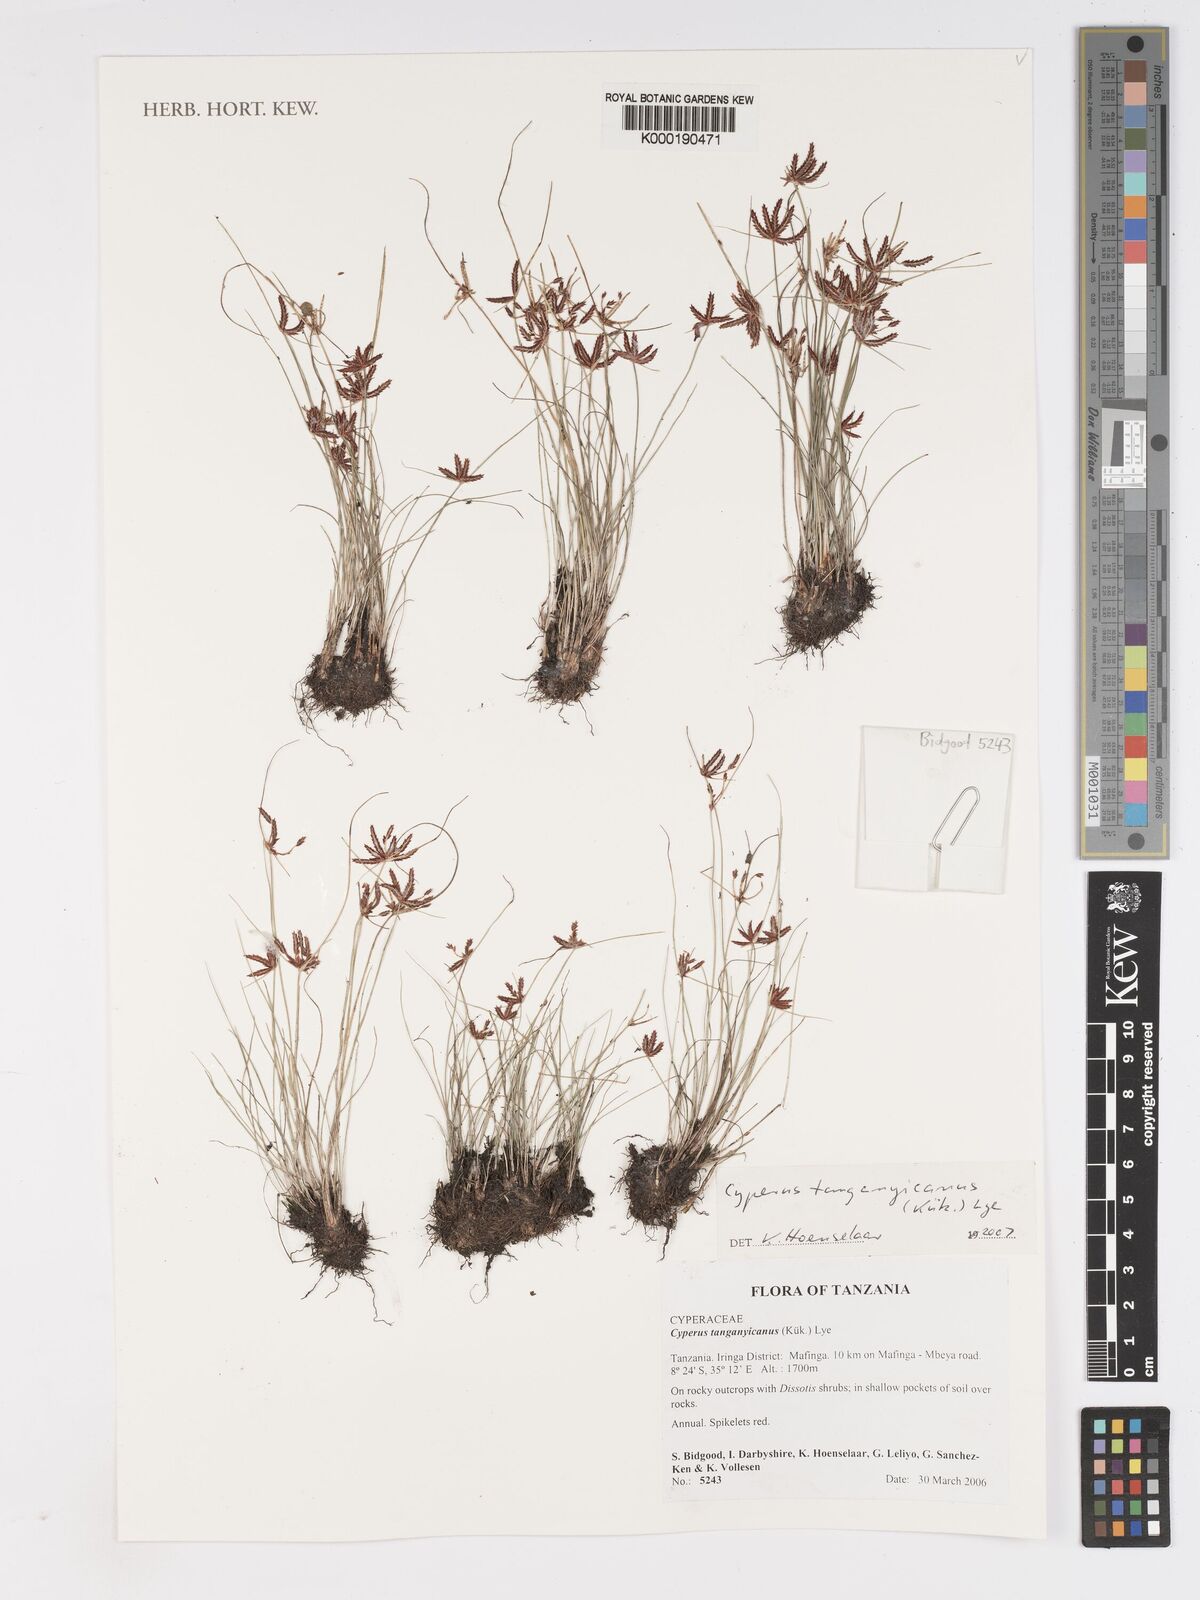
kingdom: Plantae
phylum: Tracheophyta
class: Liliopsida
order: Poales
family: Cyperaceae
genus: Cyperus
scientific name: Cyperus
